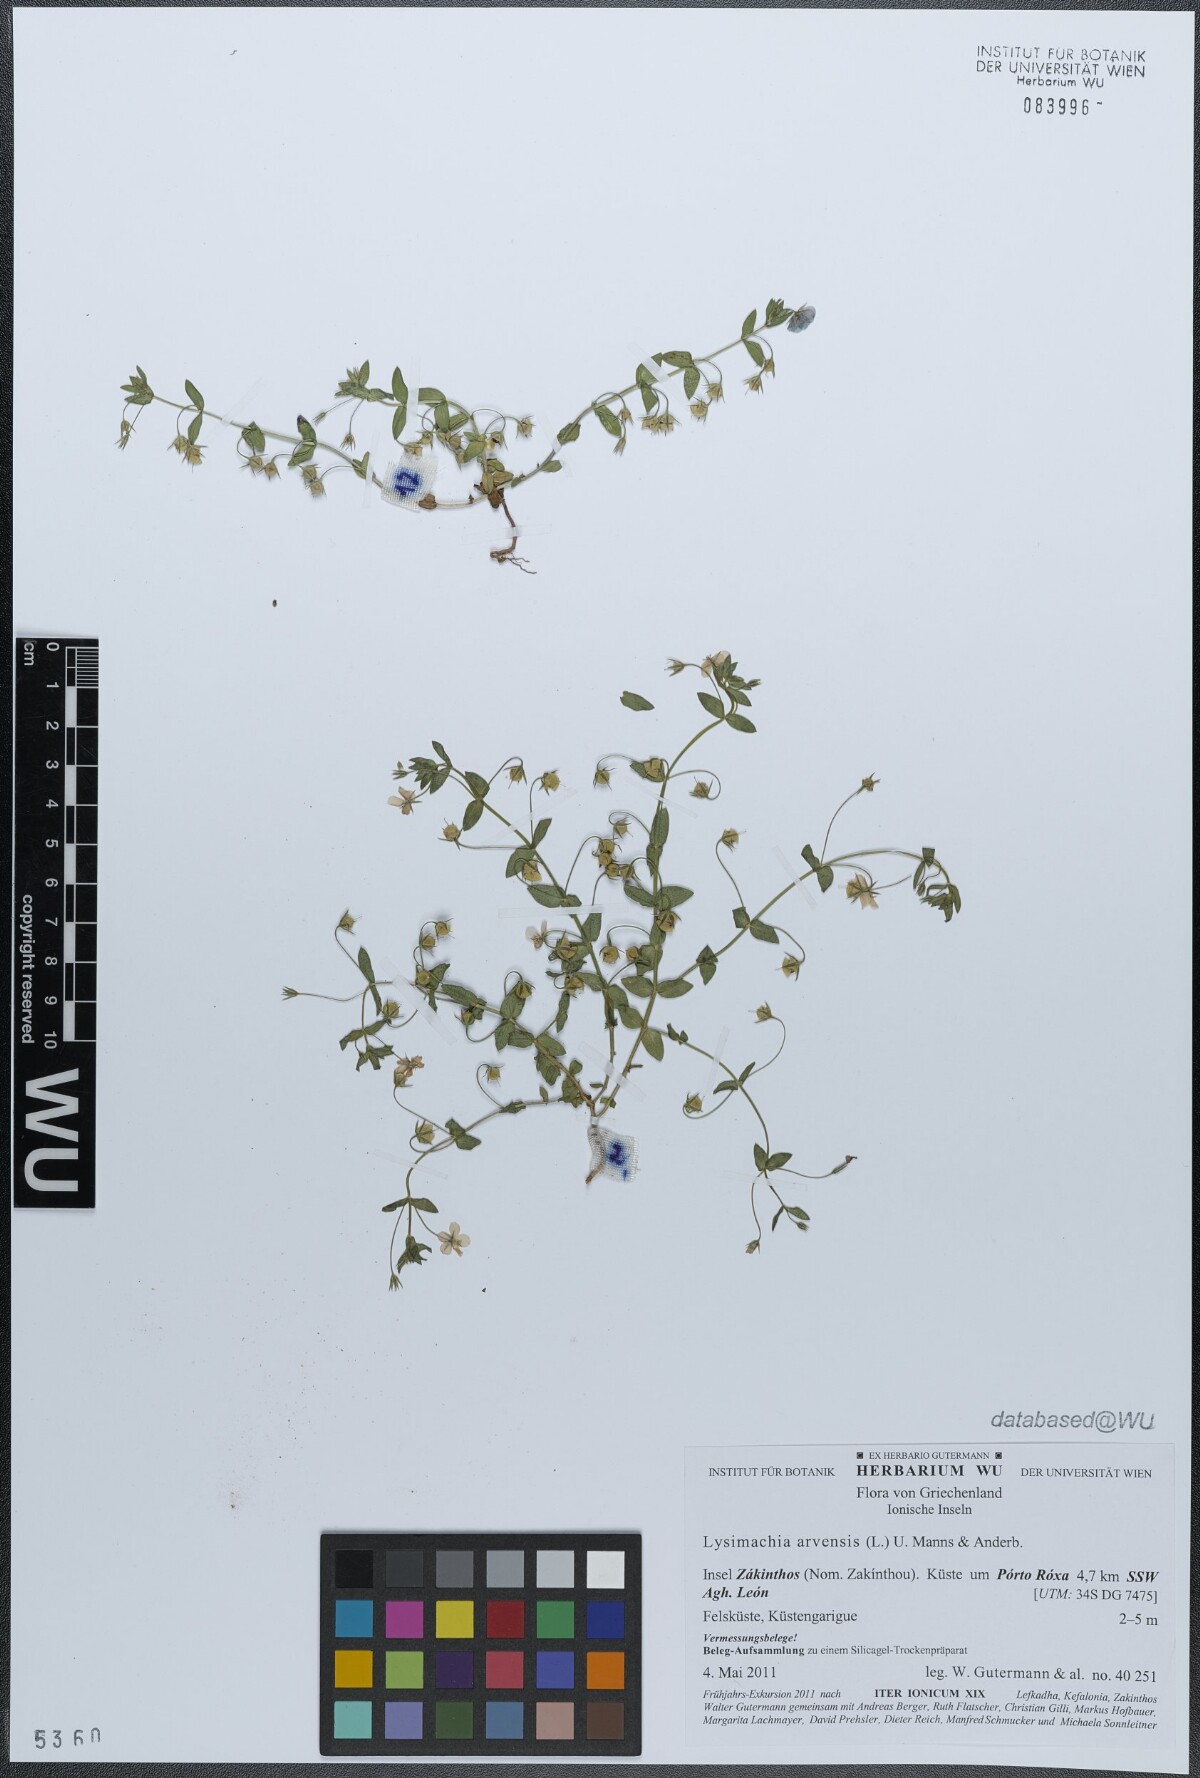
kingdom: Plantae
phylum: Tracheophyta
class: Magnoliopsida
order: Ericales
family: Primulaceae
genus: Lysimachia
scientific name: Lysimachia arvensis
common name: Scarlet pimpernel
